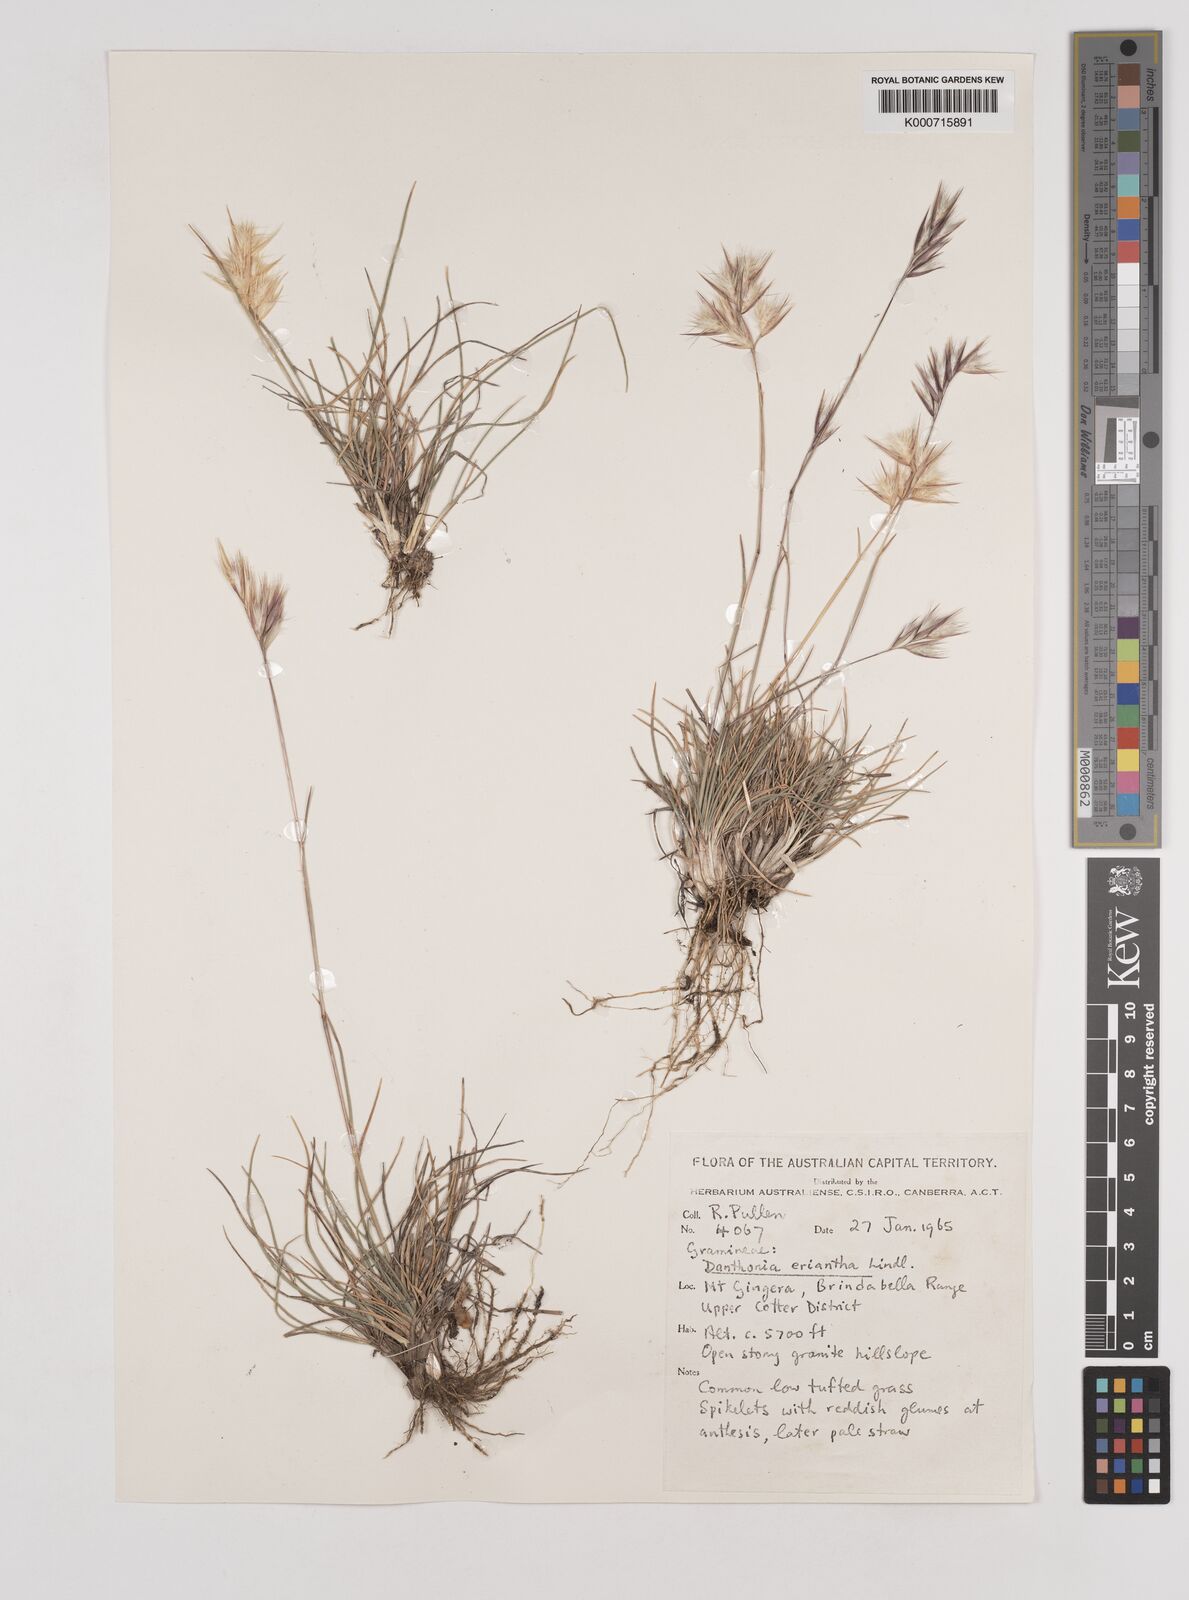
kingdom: Plantae
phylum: Tracheophyta
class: Liliopsida
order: Poales
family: Poaceae
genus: Rytidosperma
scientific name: Rytidosperma erianthum
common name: Hill wallaby grass
